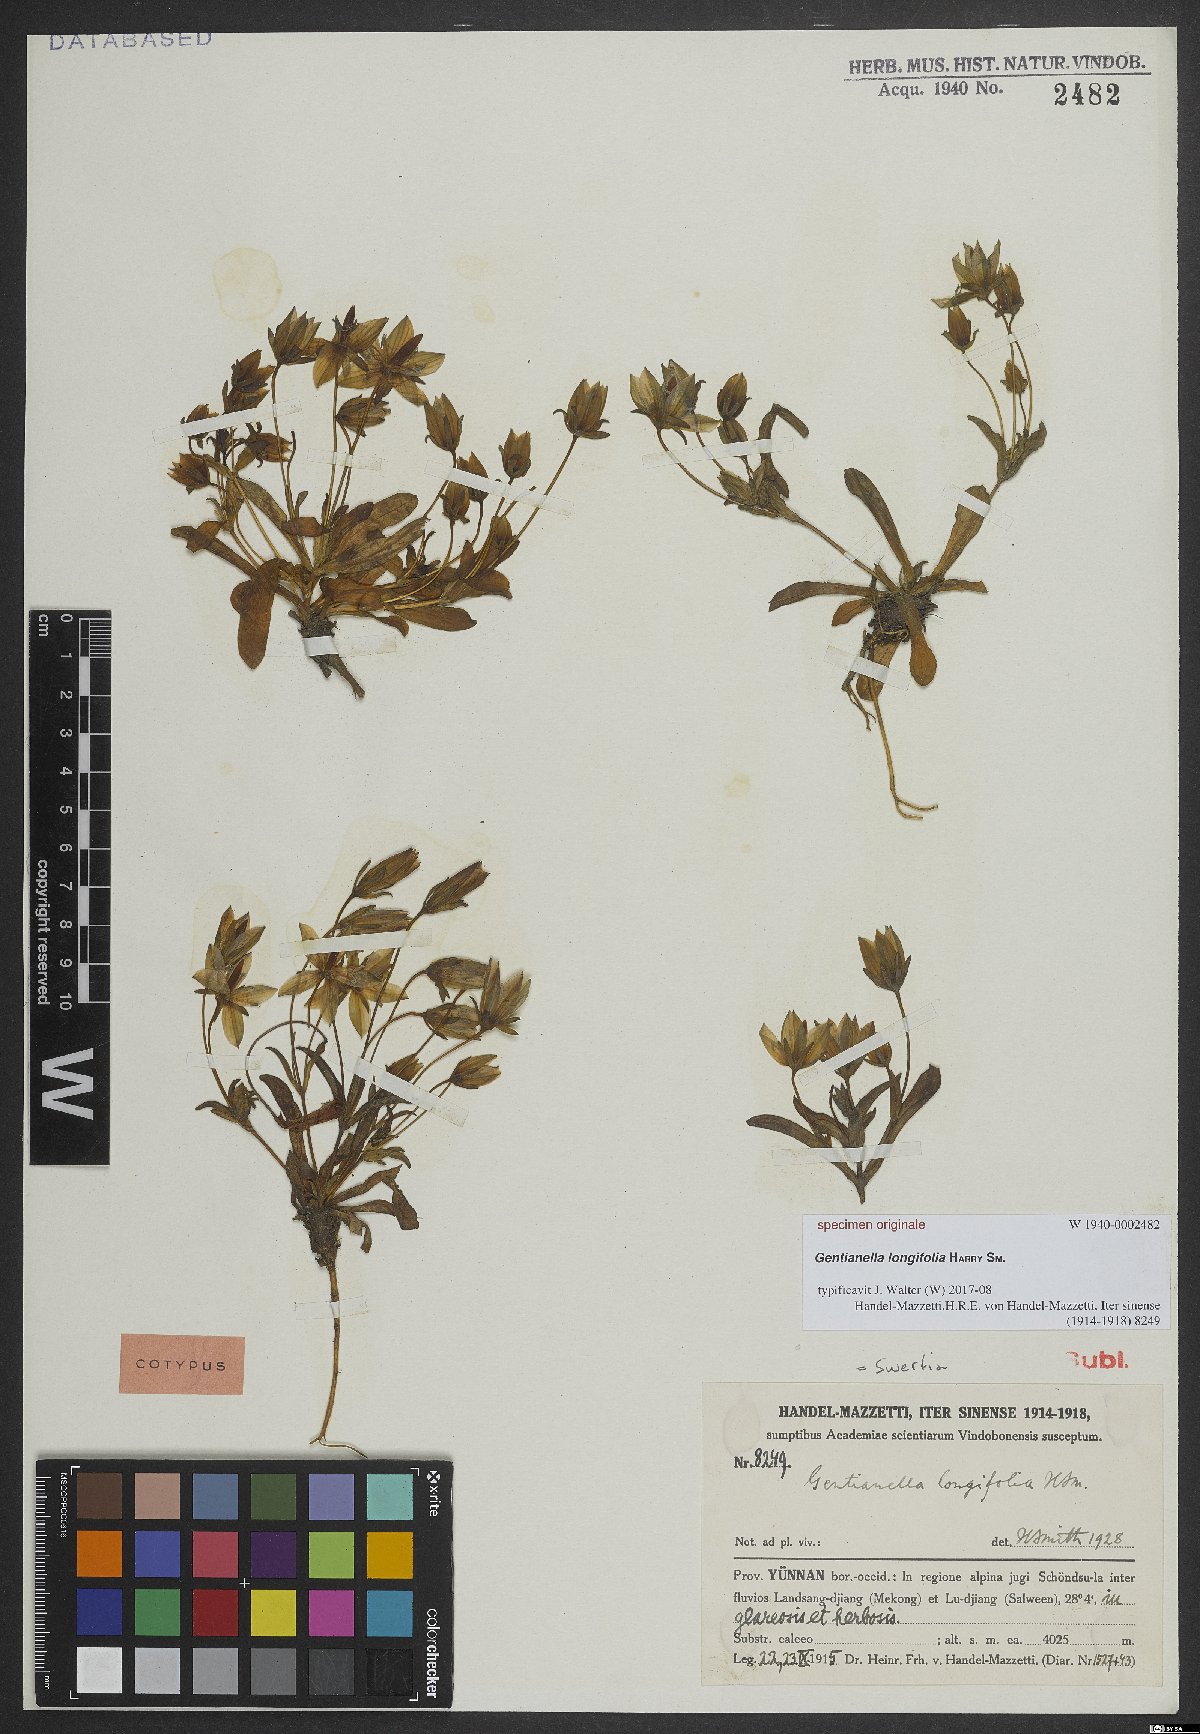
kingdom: Plantae
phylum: Tracheophyta
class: Magnoliopsida
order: Gentianales
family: Gentianaceae
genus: Swertia
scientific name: Swertia
